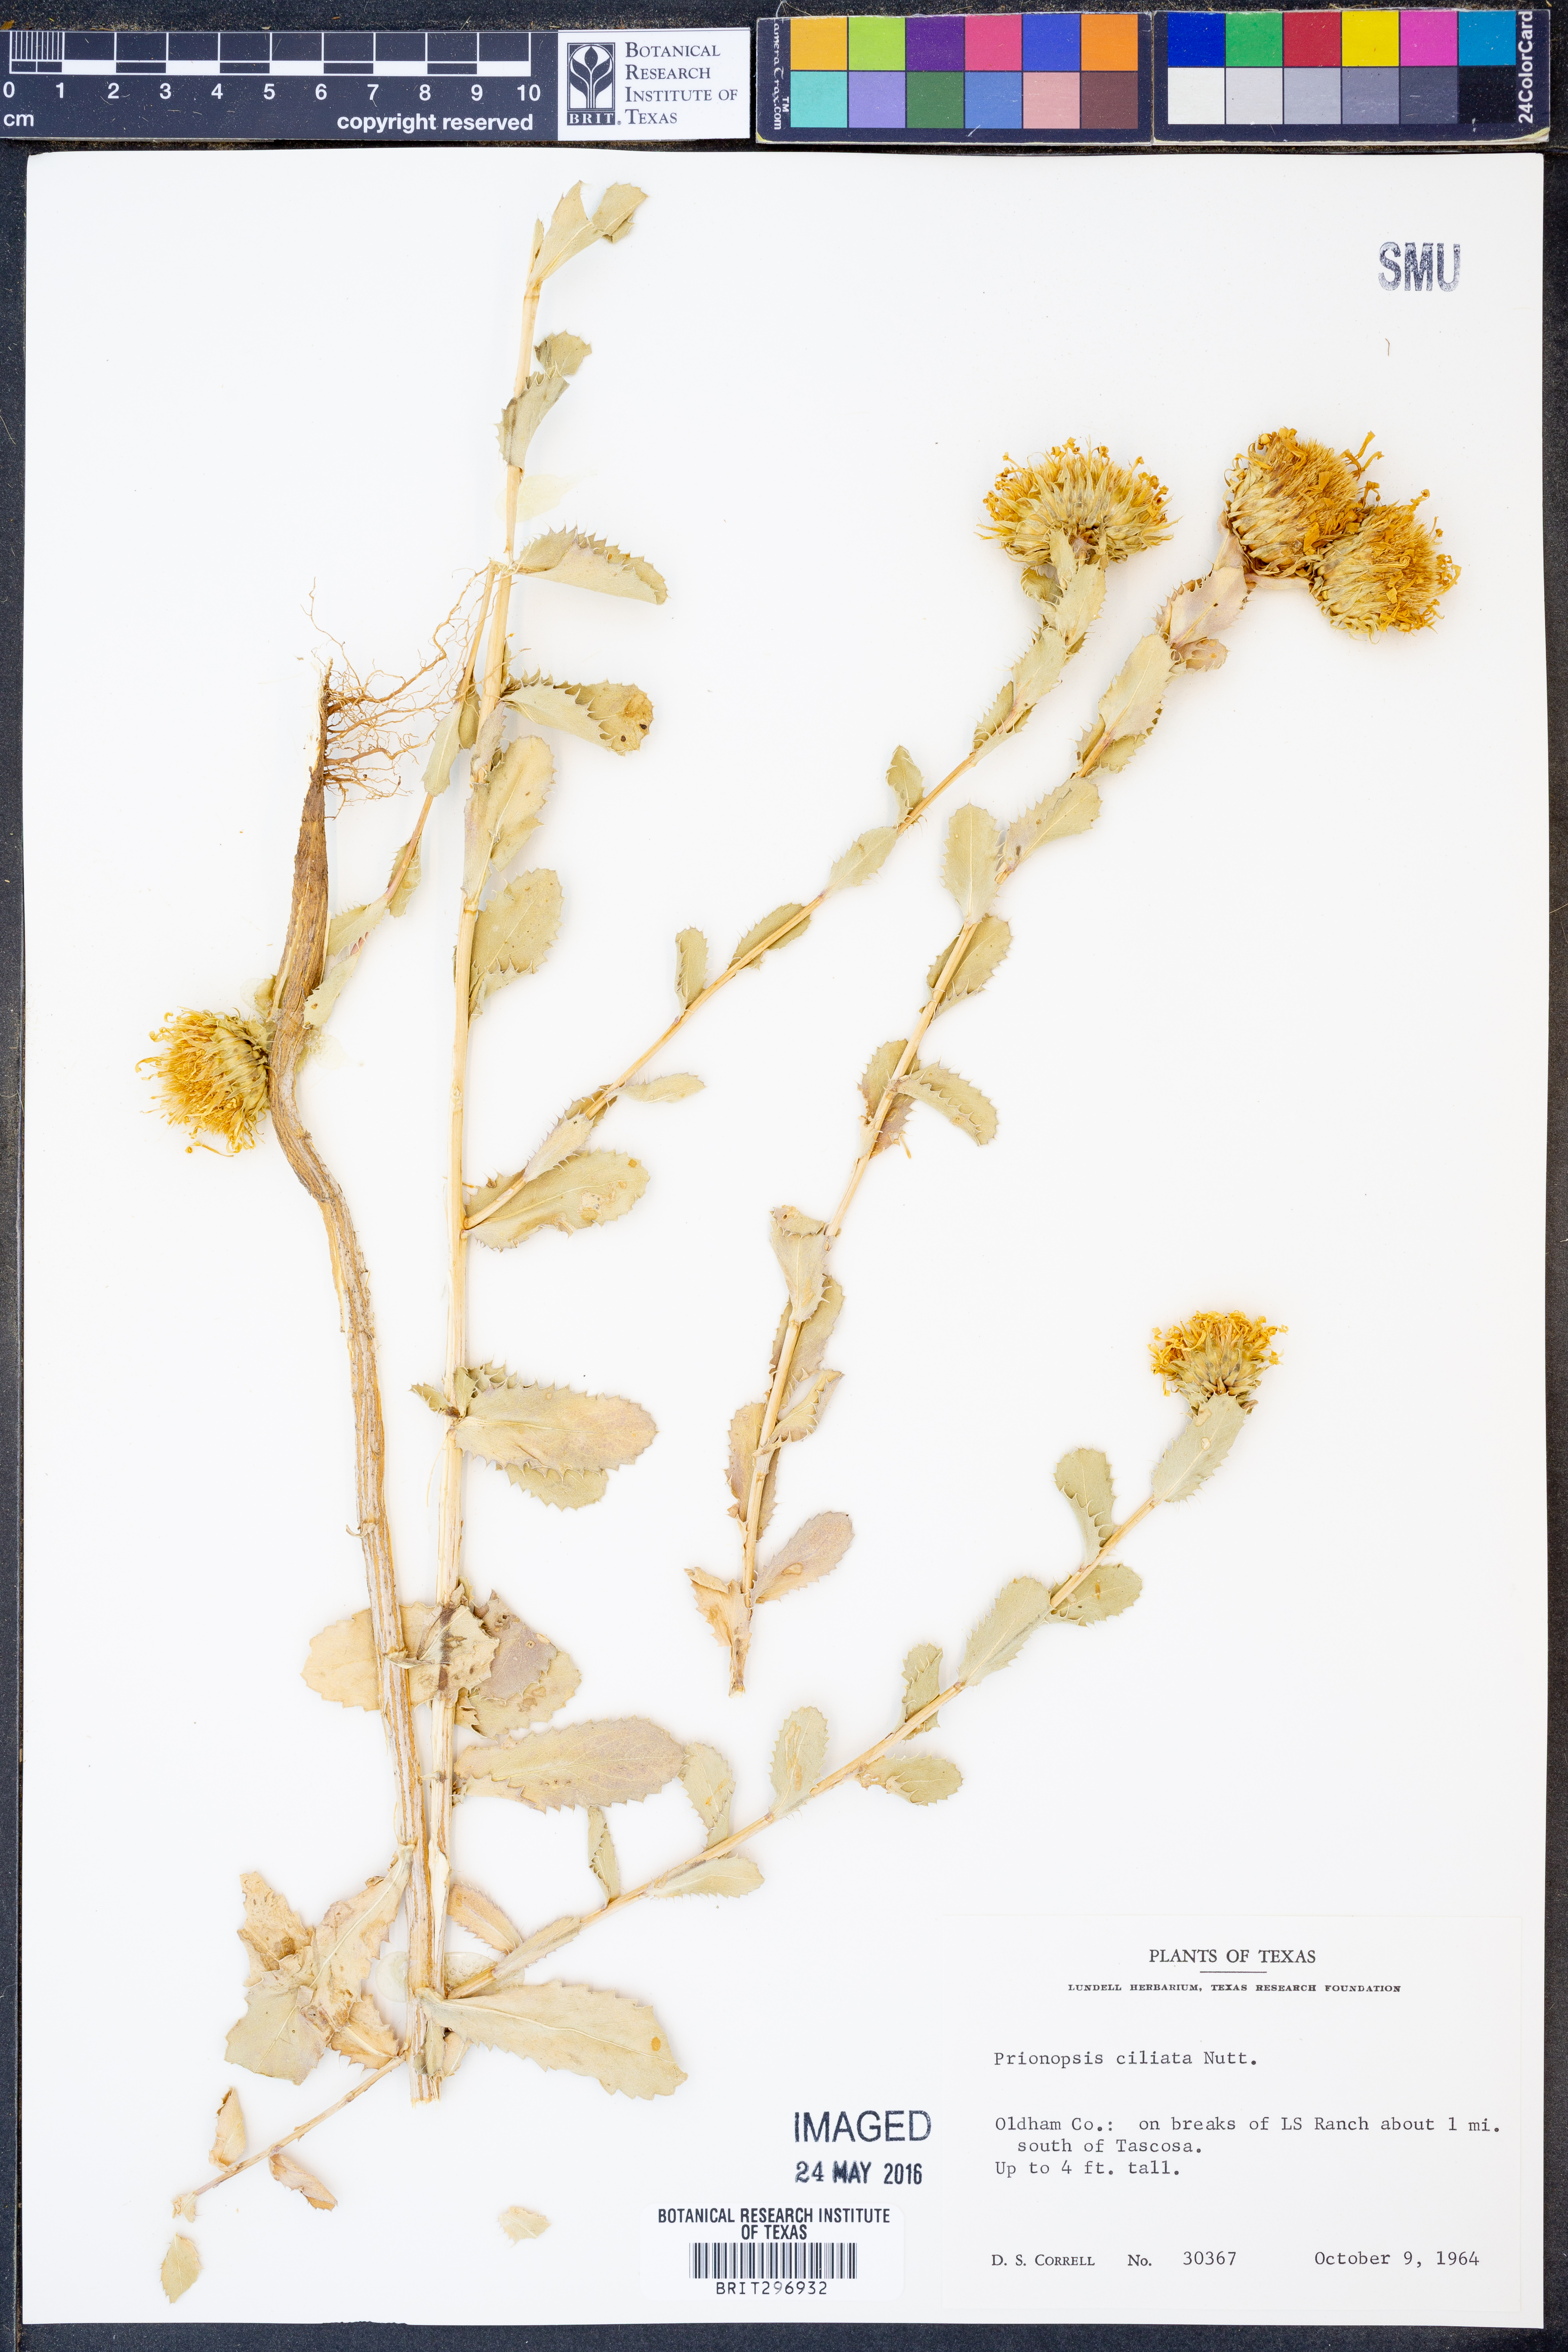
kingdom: Plantae
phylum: Tracheophyta
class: Magnoliopsida
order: Asterales
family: Asteraceae
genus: Grindelia
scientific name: Grindelia ciliata
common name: Goldenweed
